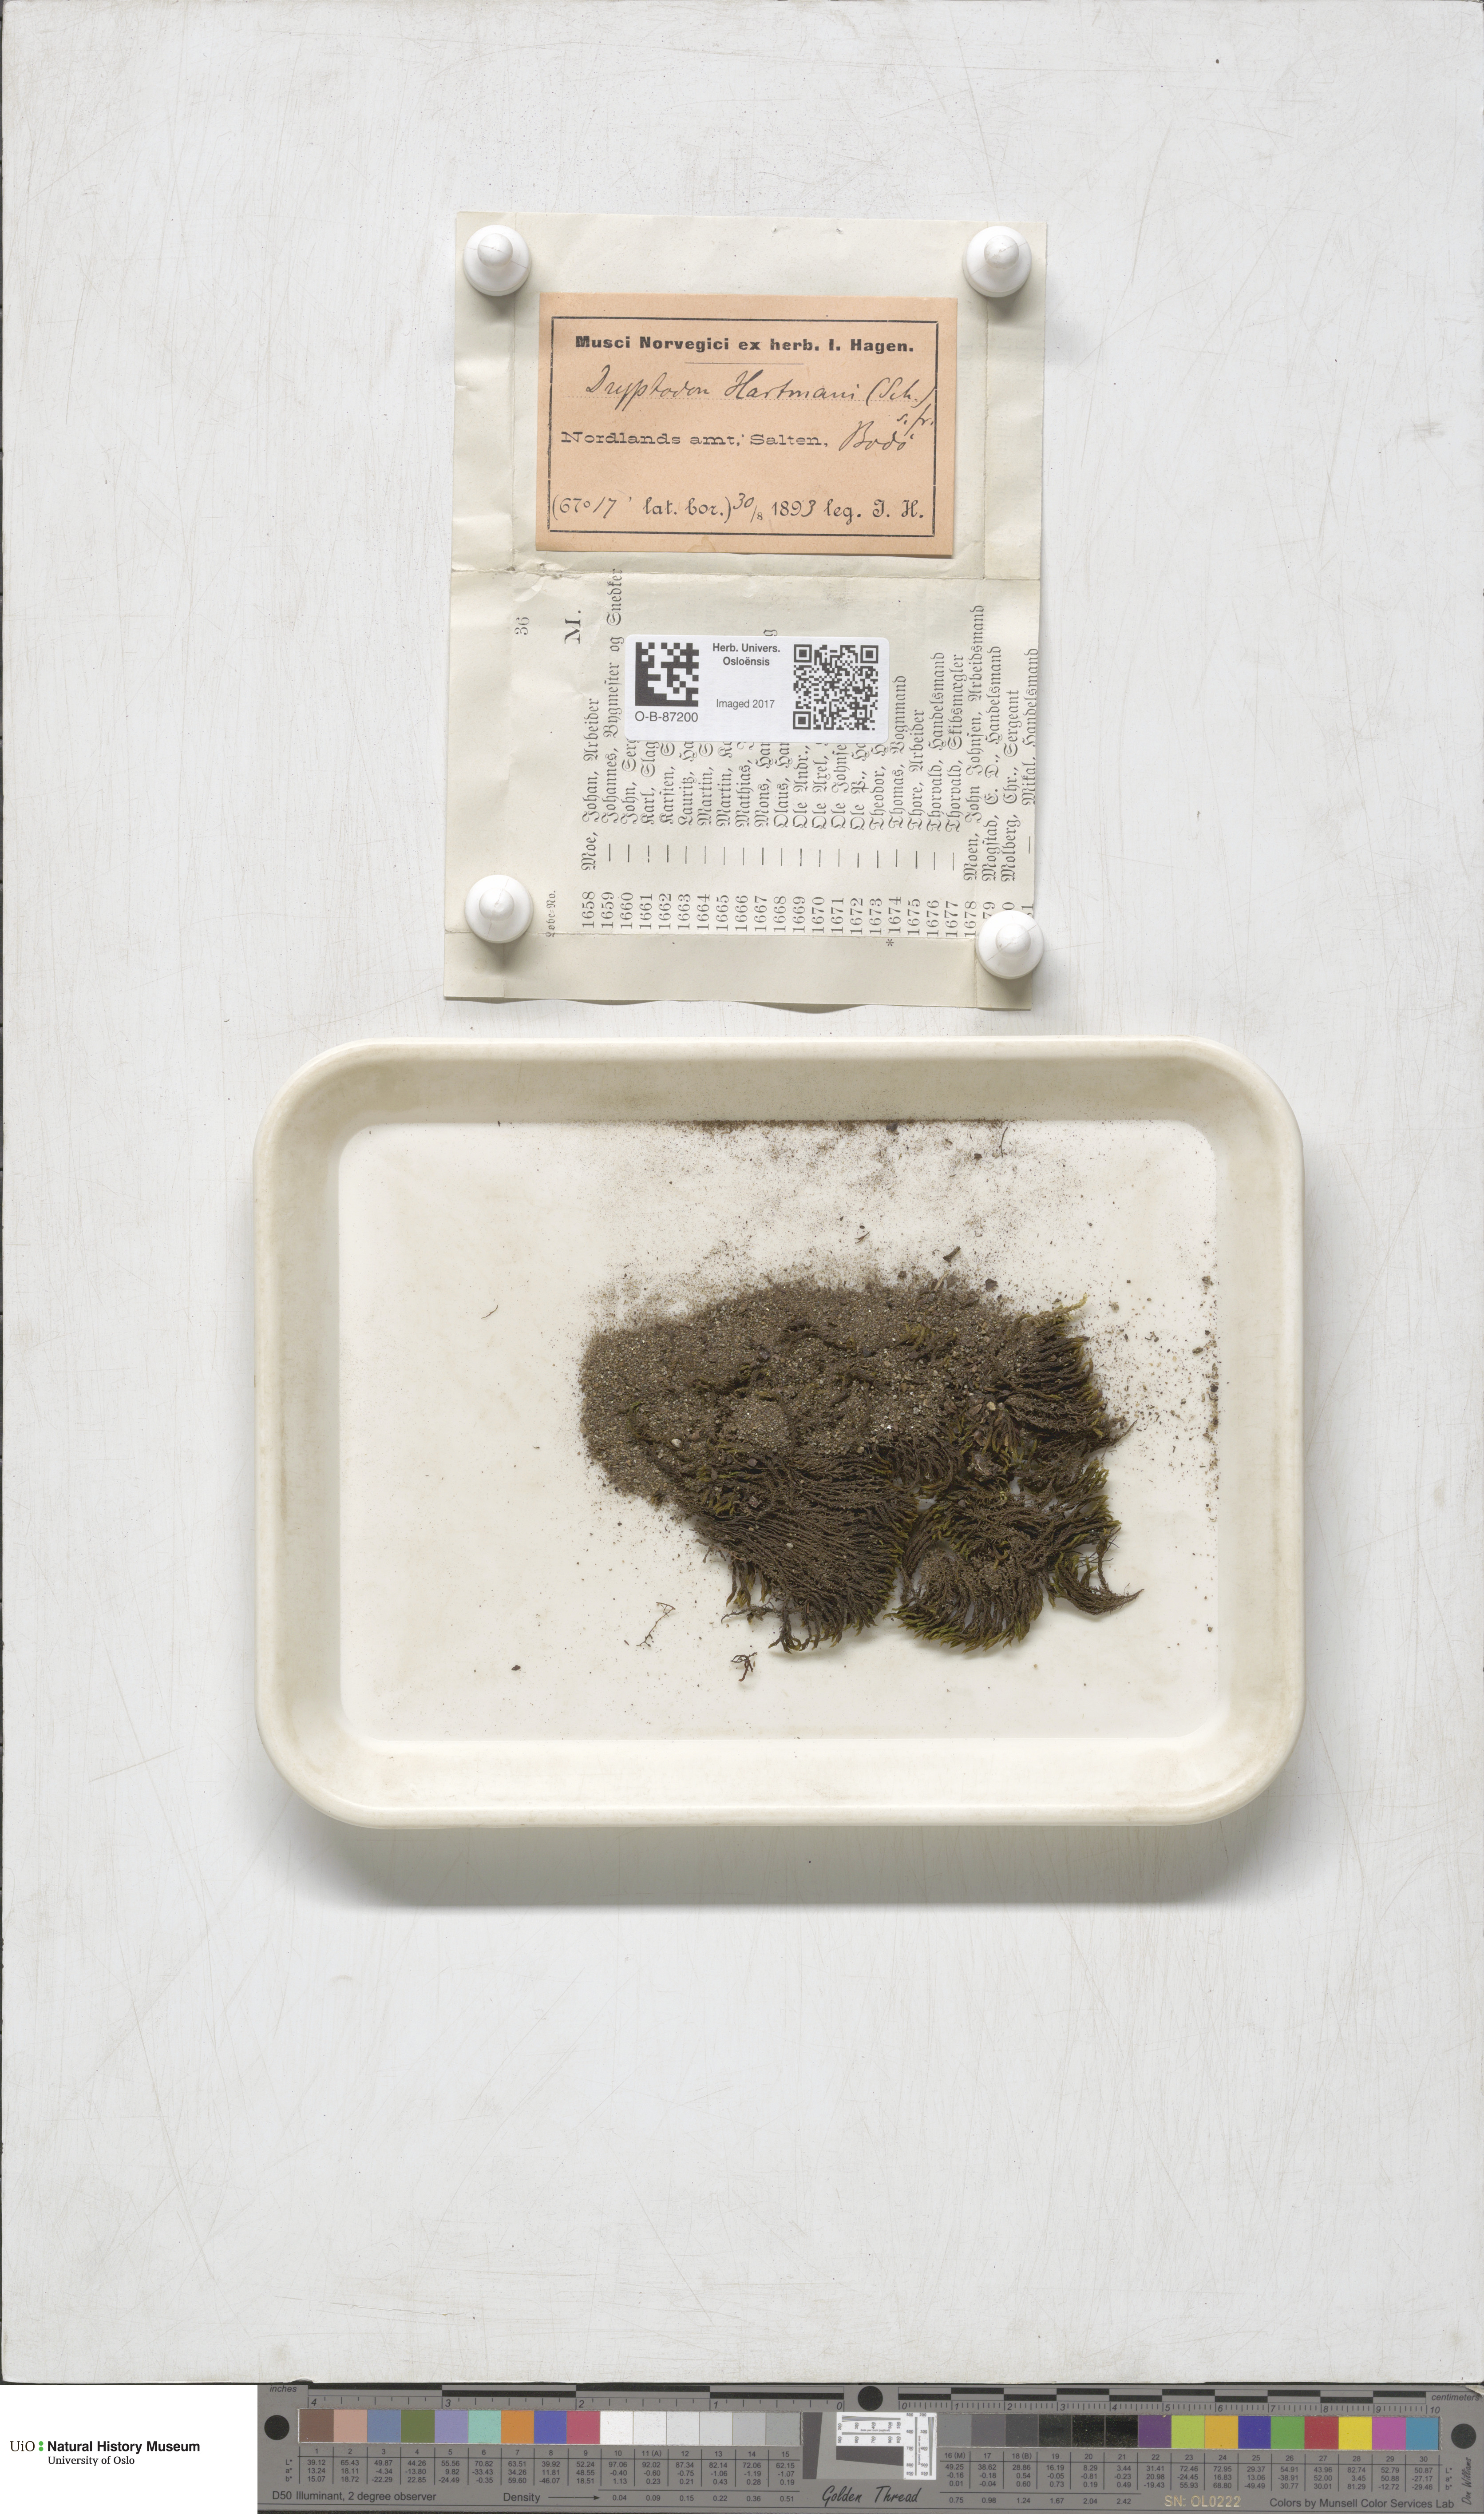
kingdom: Plantae
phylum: Bryophyta
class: Bryopsida
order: Grimmiales
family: Grimmiaceae
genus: Grimmia
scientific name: Grimmia hartmanii
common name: Hartman's grimmia
